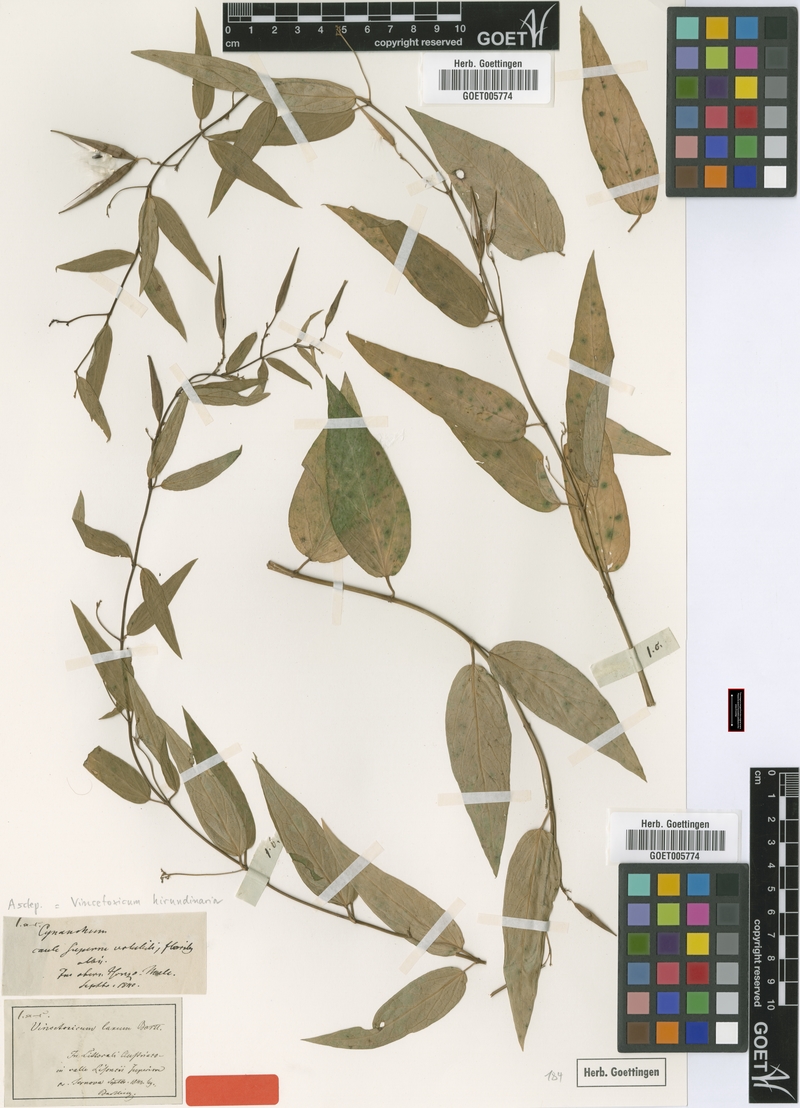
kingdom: Plantae
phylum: Tracheophyta
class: Magnoliopsida
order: Gentianales
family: Apocynaceae
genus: Vincetoxicum
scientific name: Vincetoxicum hirundinaria
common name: White swallowwort
